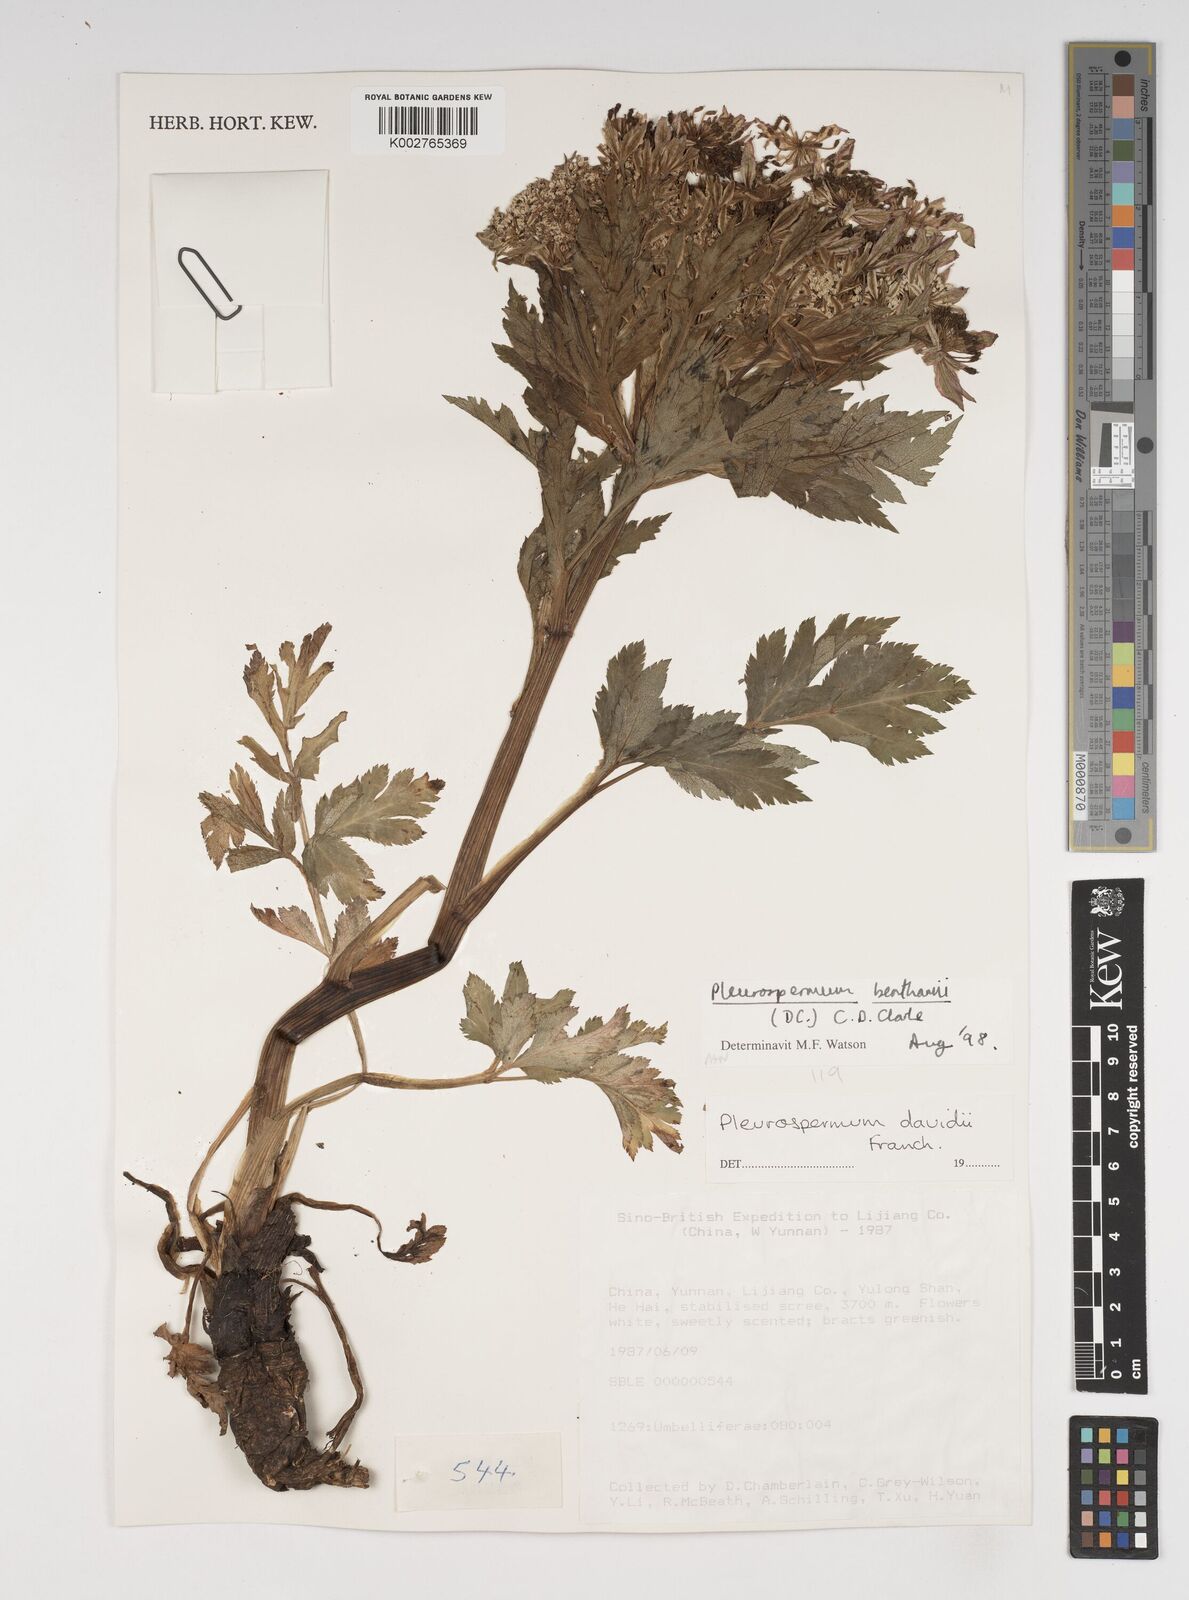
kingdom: Plantae
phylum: Tracheophyta
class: Magnoliopsida
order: Apiales
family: Apiaceae
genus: Hymenidium
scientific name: Hymenidium benthamii
